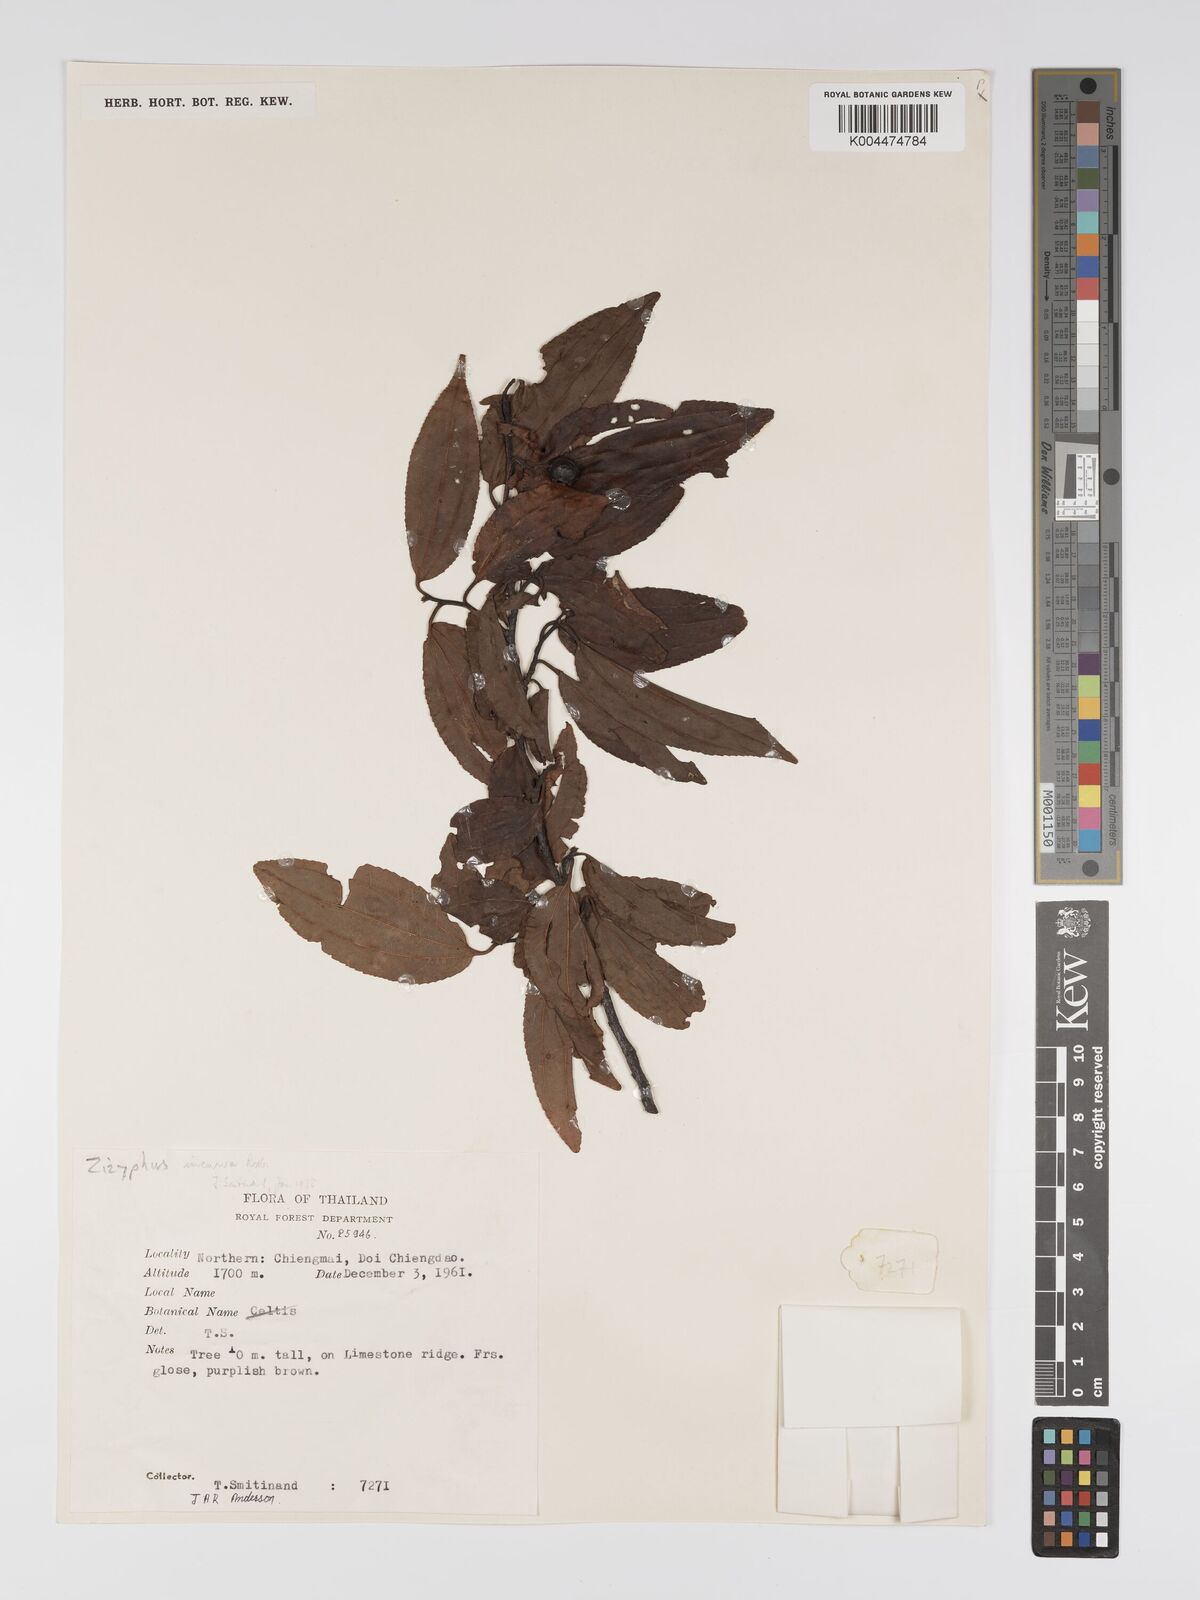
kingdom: Plantae
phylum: Tracheophyta
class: Magnoliopsida
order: Rosales
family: Rhamnaceae
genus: Ziziphus
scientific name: Ziziphus incurva
